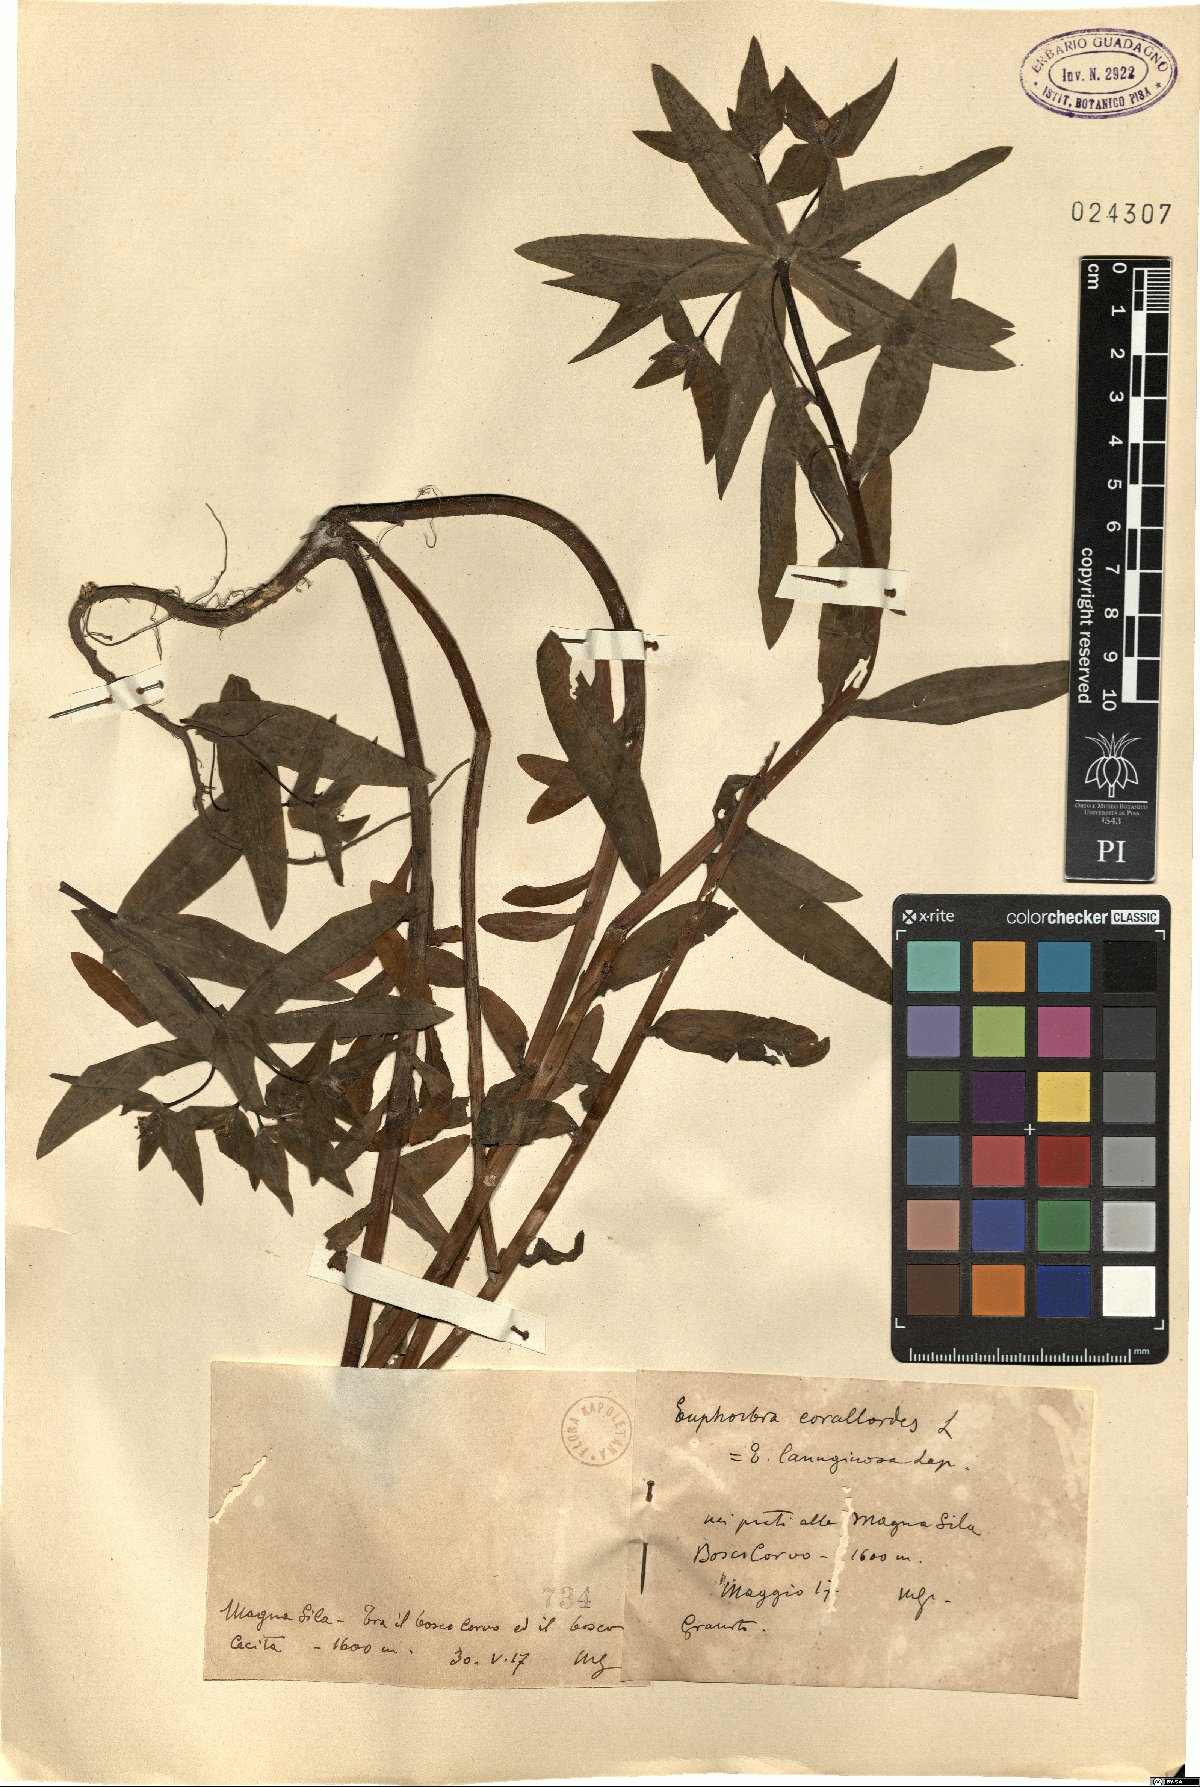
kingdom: Plantae
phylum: Tracheophyta
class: Magnoliopsida
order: Malpighiales
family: Euphorbiaceae
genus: Euphorbia
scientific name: Euphorbia corallioides
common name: Coral spurge
